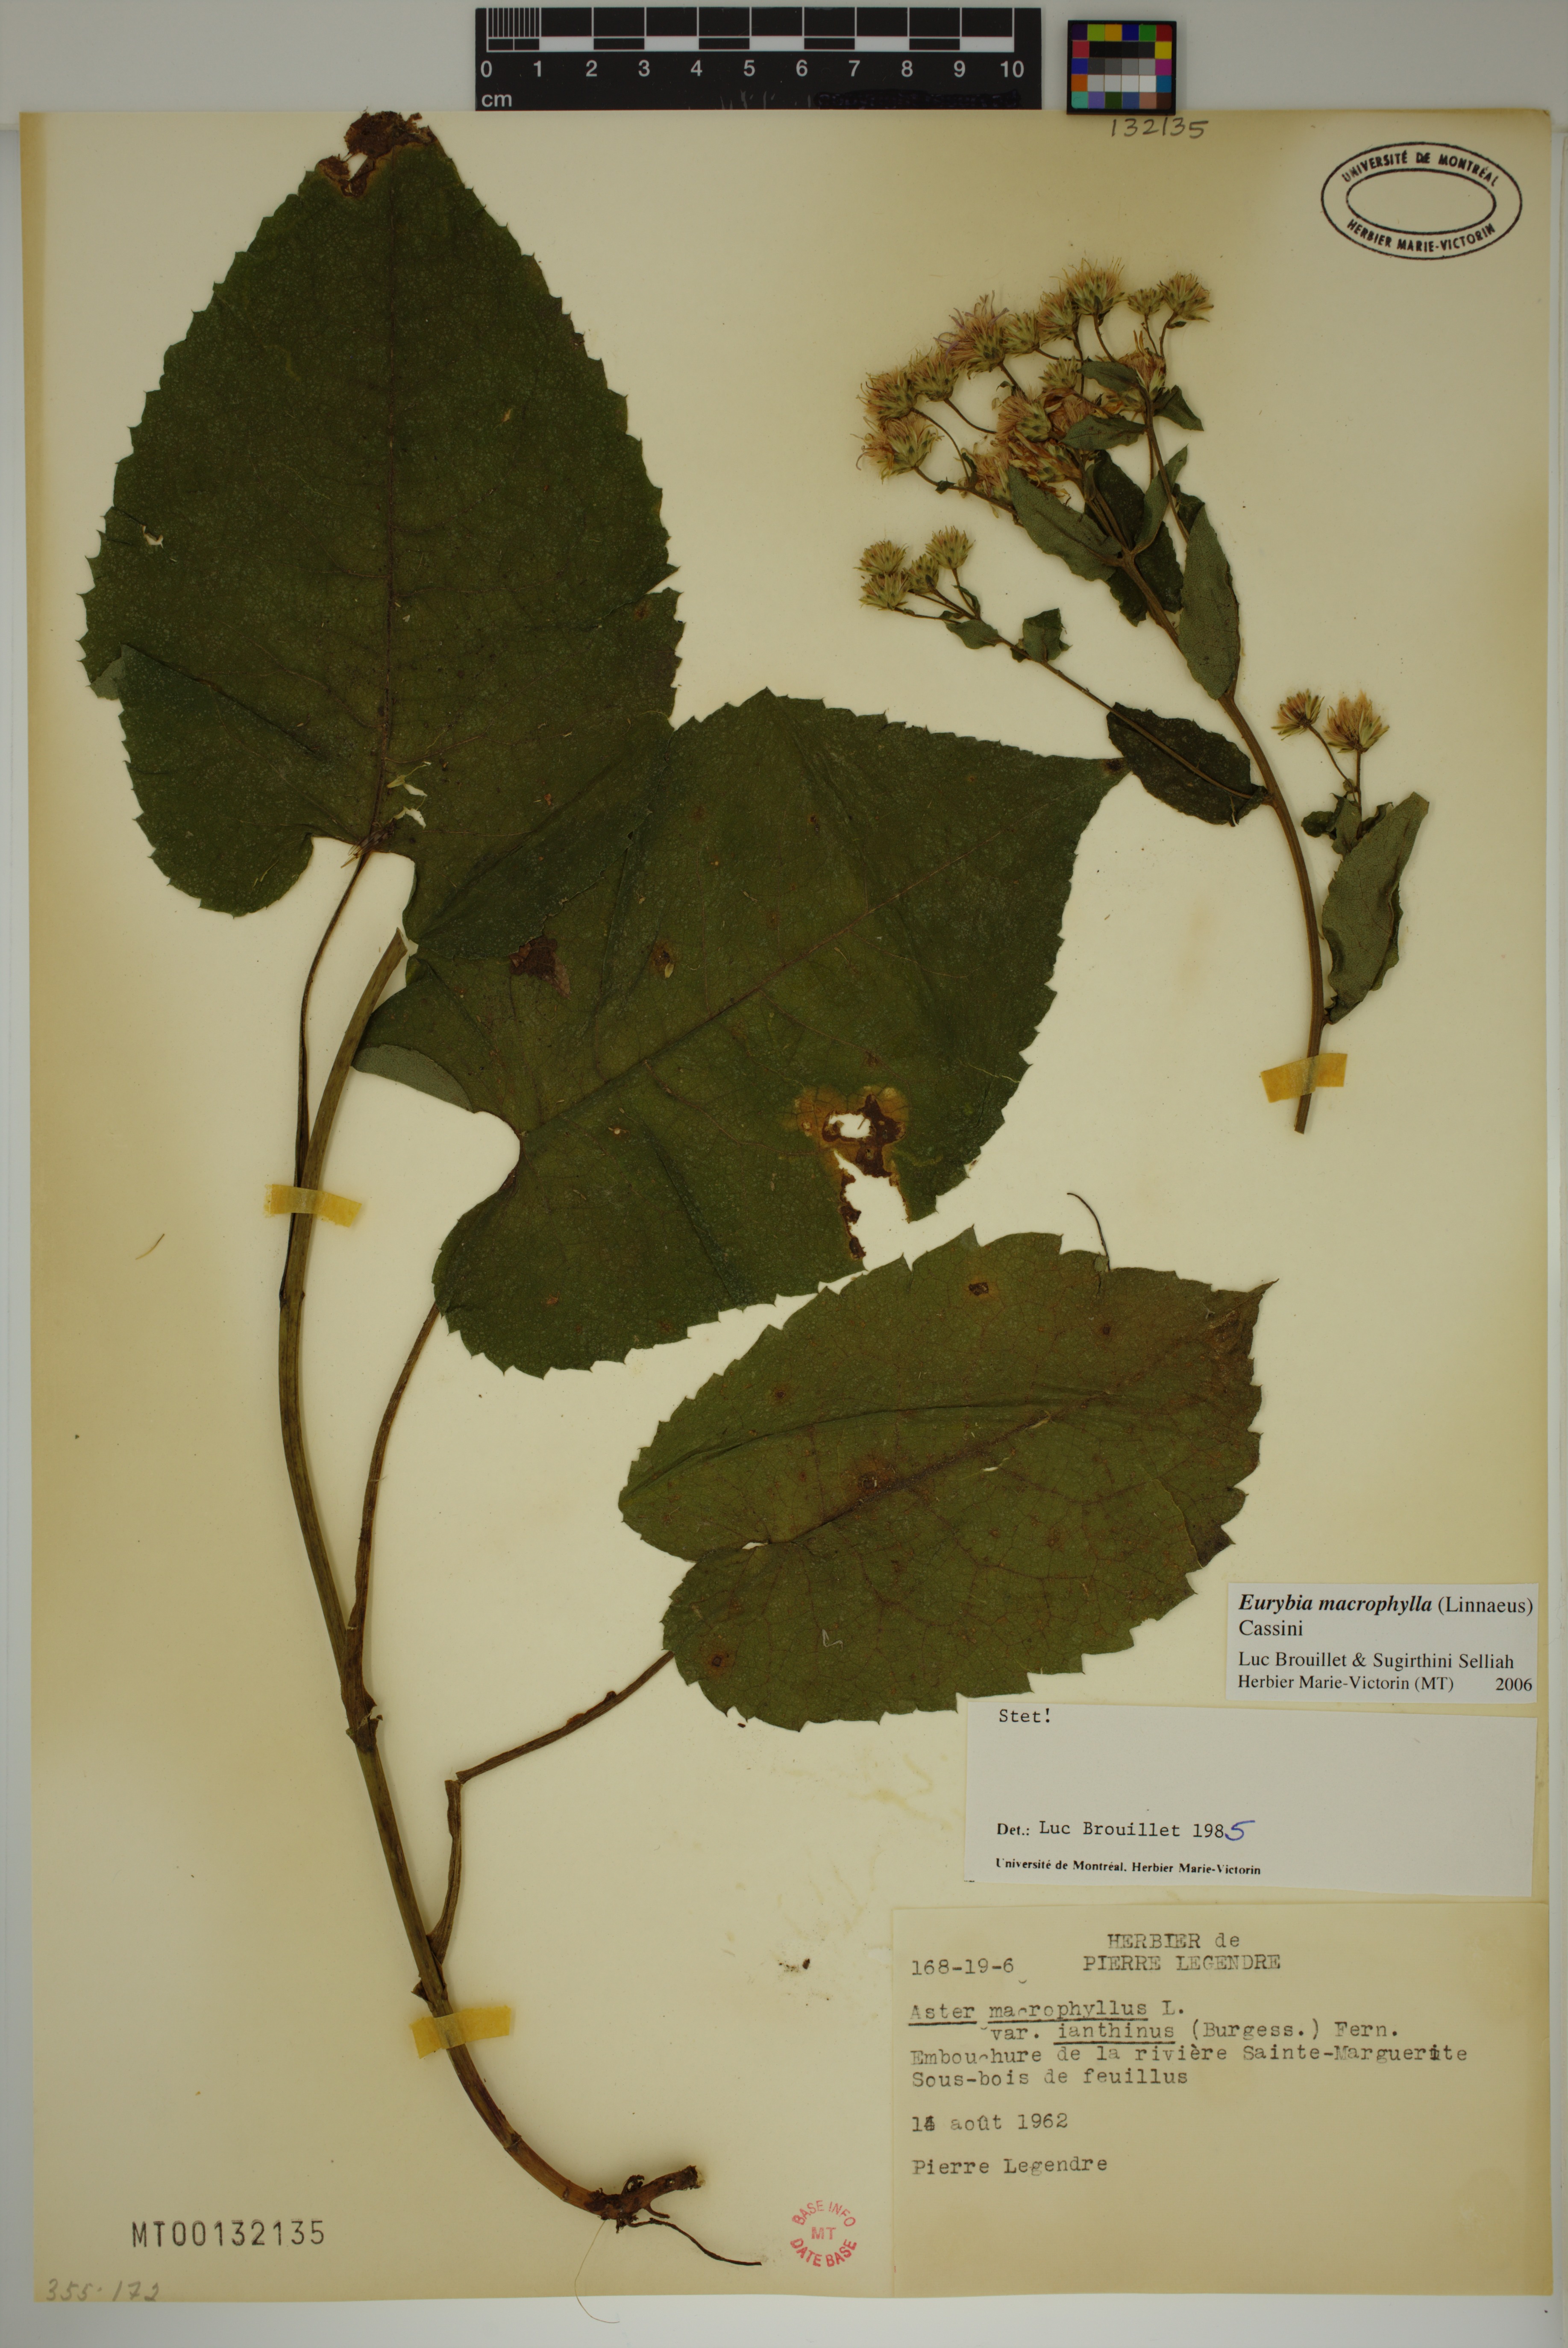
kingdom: Plantae
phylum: Tracheophyta
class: Magnoliopsida
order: Asterales
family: Asteraceae
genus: Eurybia
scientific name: Eurybia macrophylla
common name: Big-leaved aster
